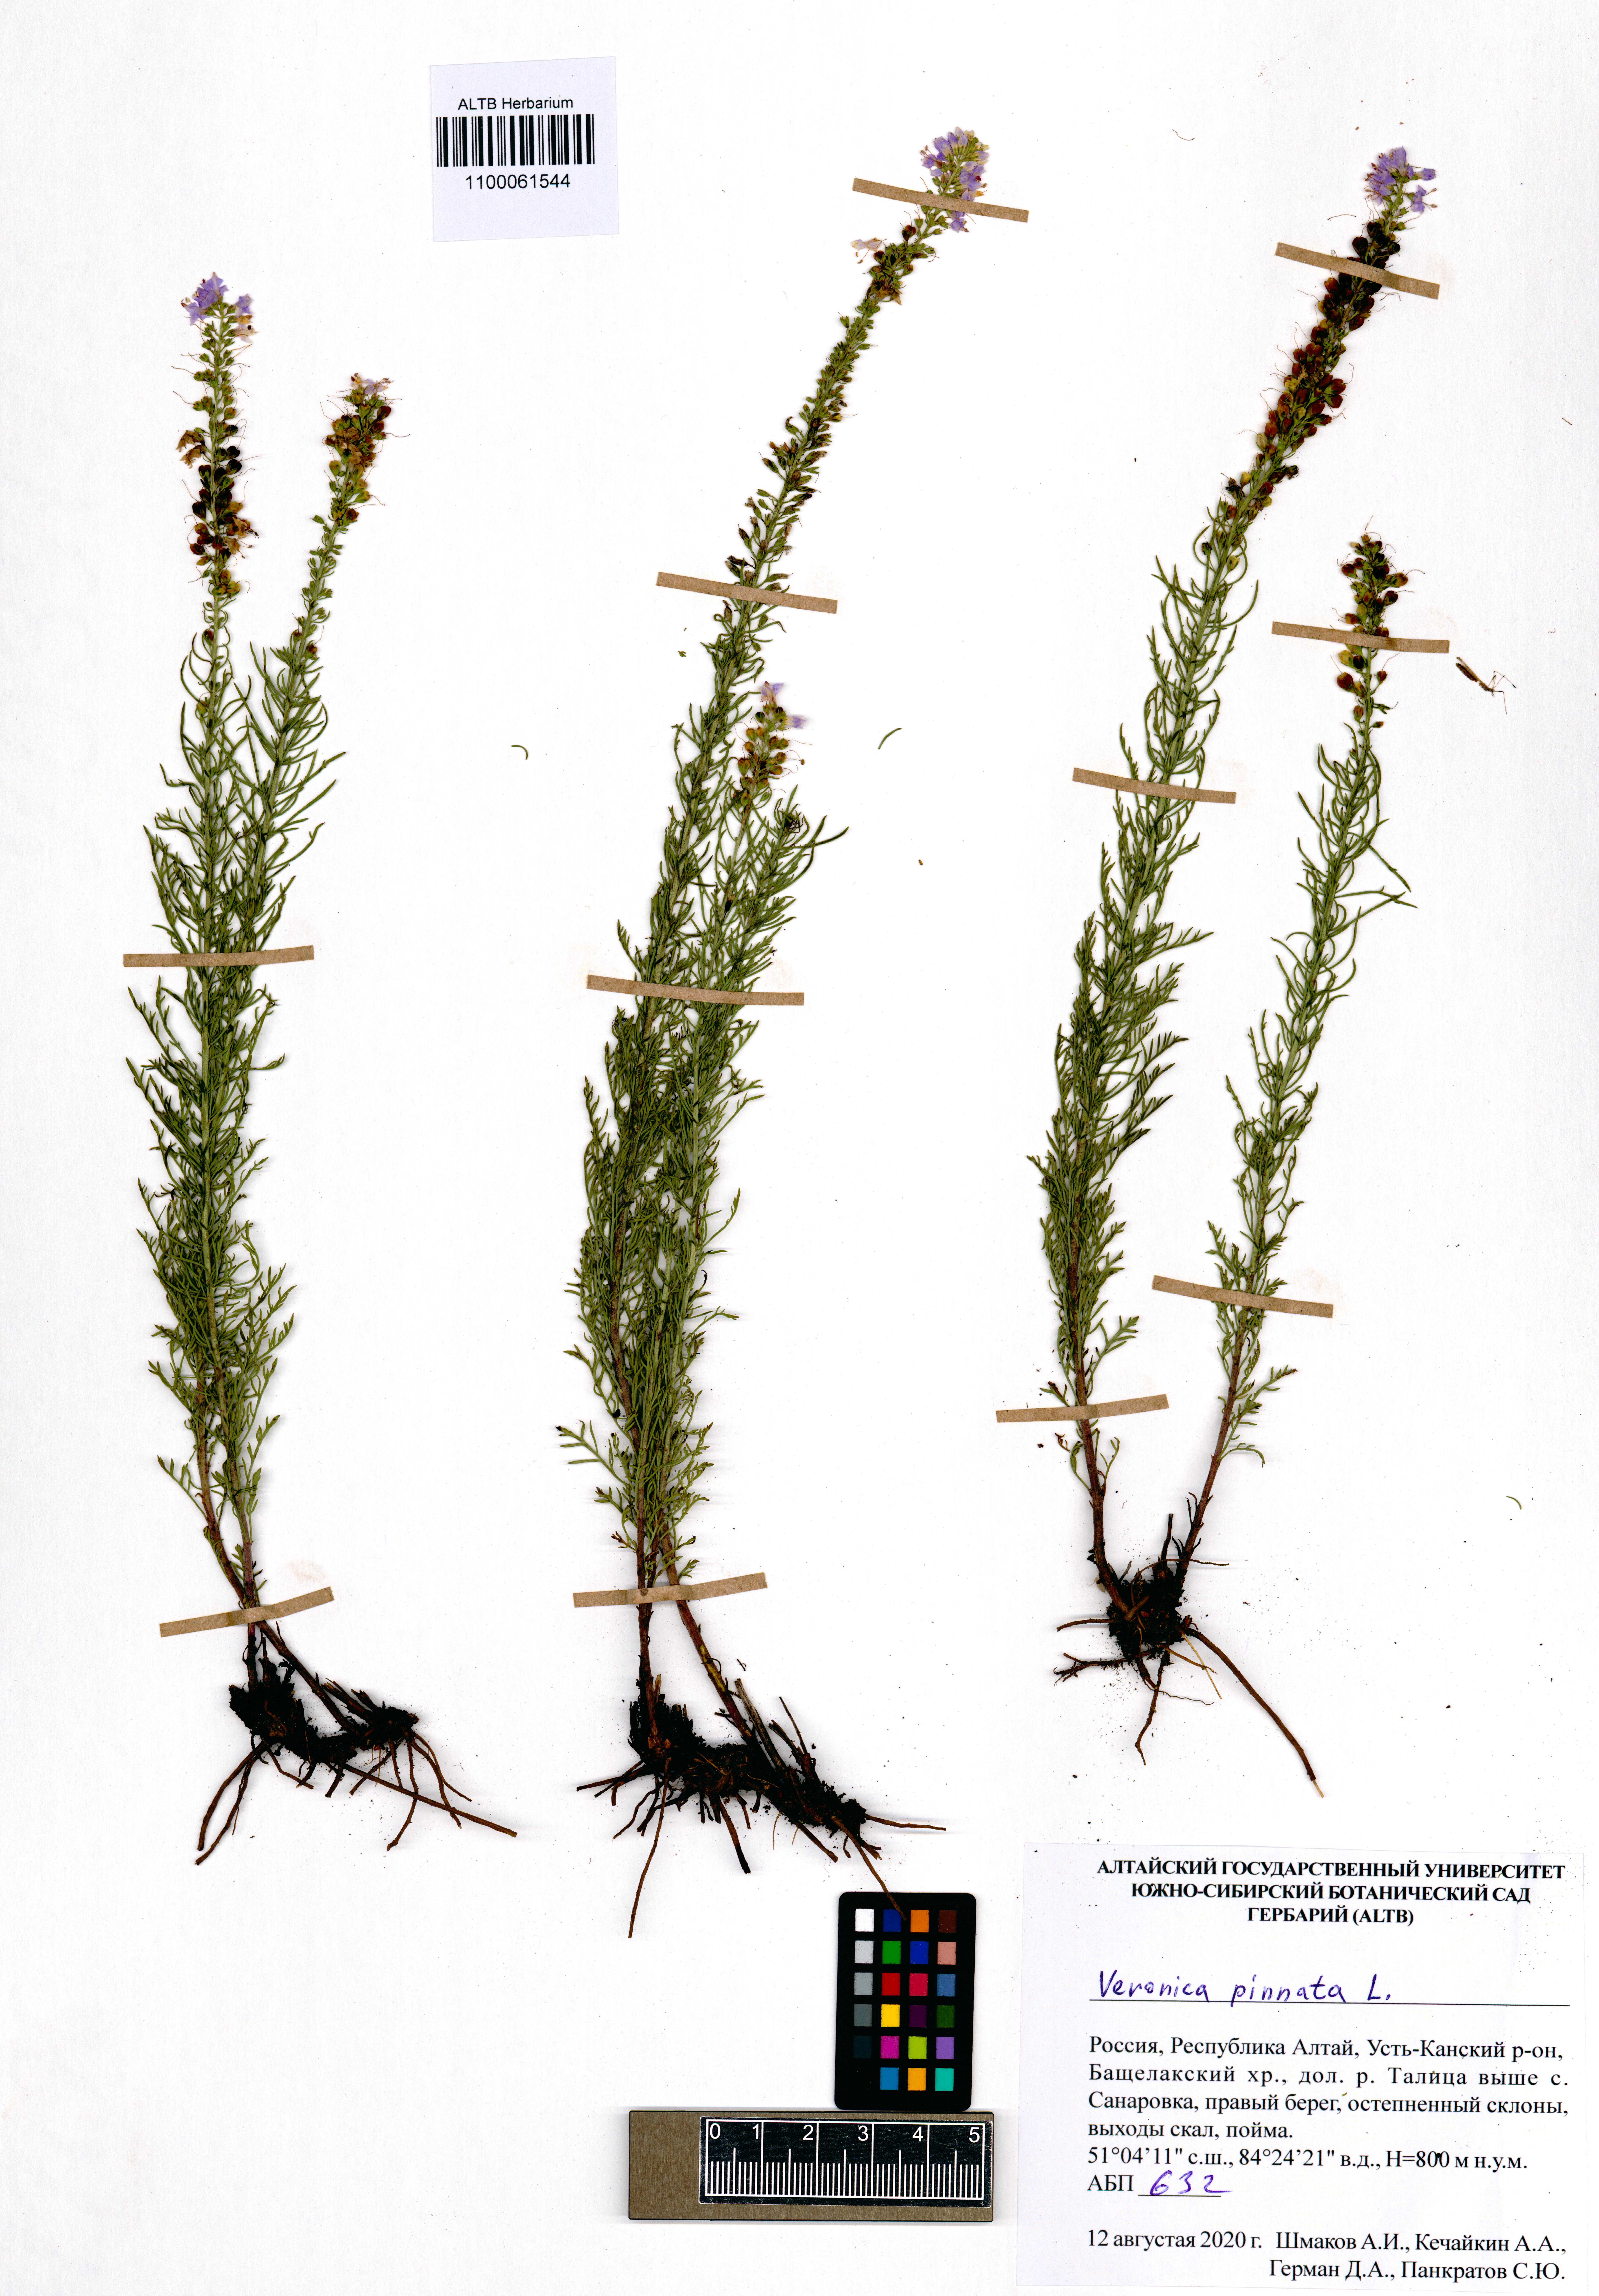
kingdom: Plantae
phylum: Tracheophyta
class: Magnoliopsida
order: Lamiales
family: Plantaginaceae
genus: Veronica
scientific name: Veronica pinnata
